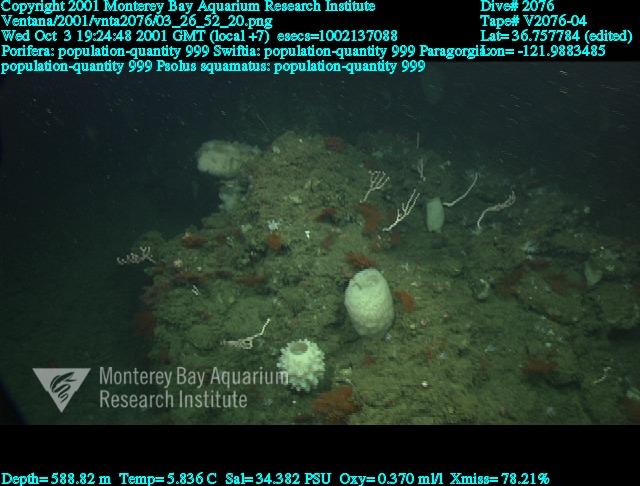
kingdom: Animalia
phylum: Porifera
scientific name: Porifera
